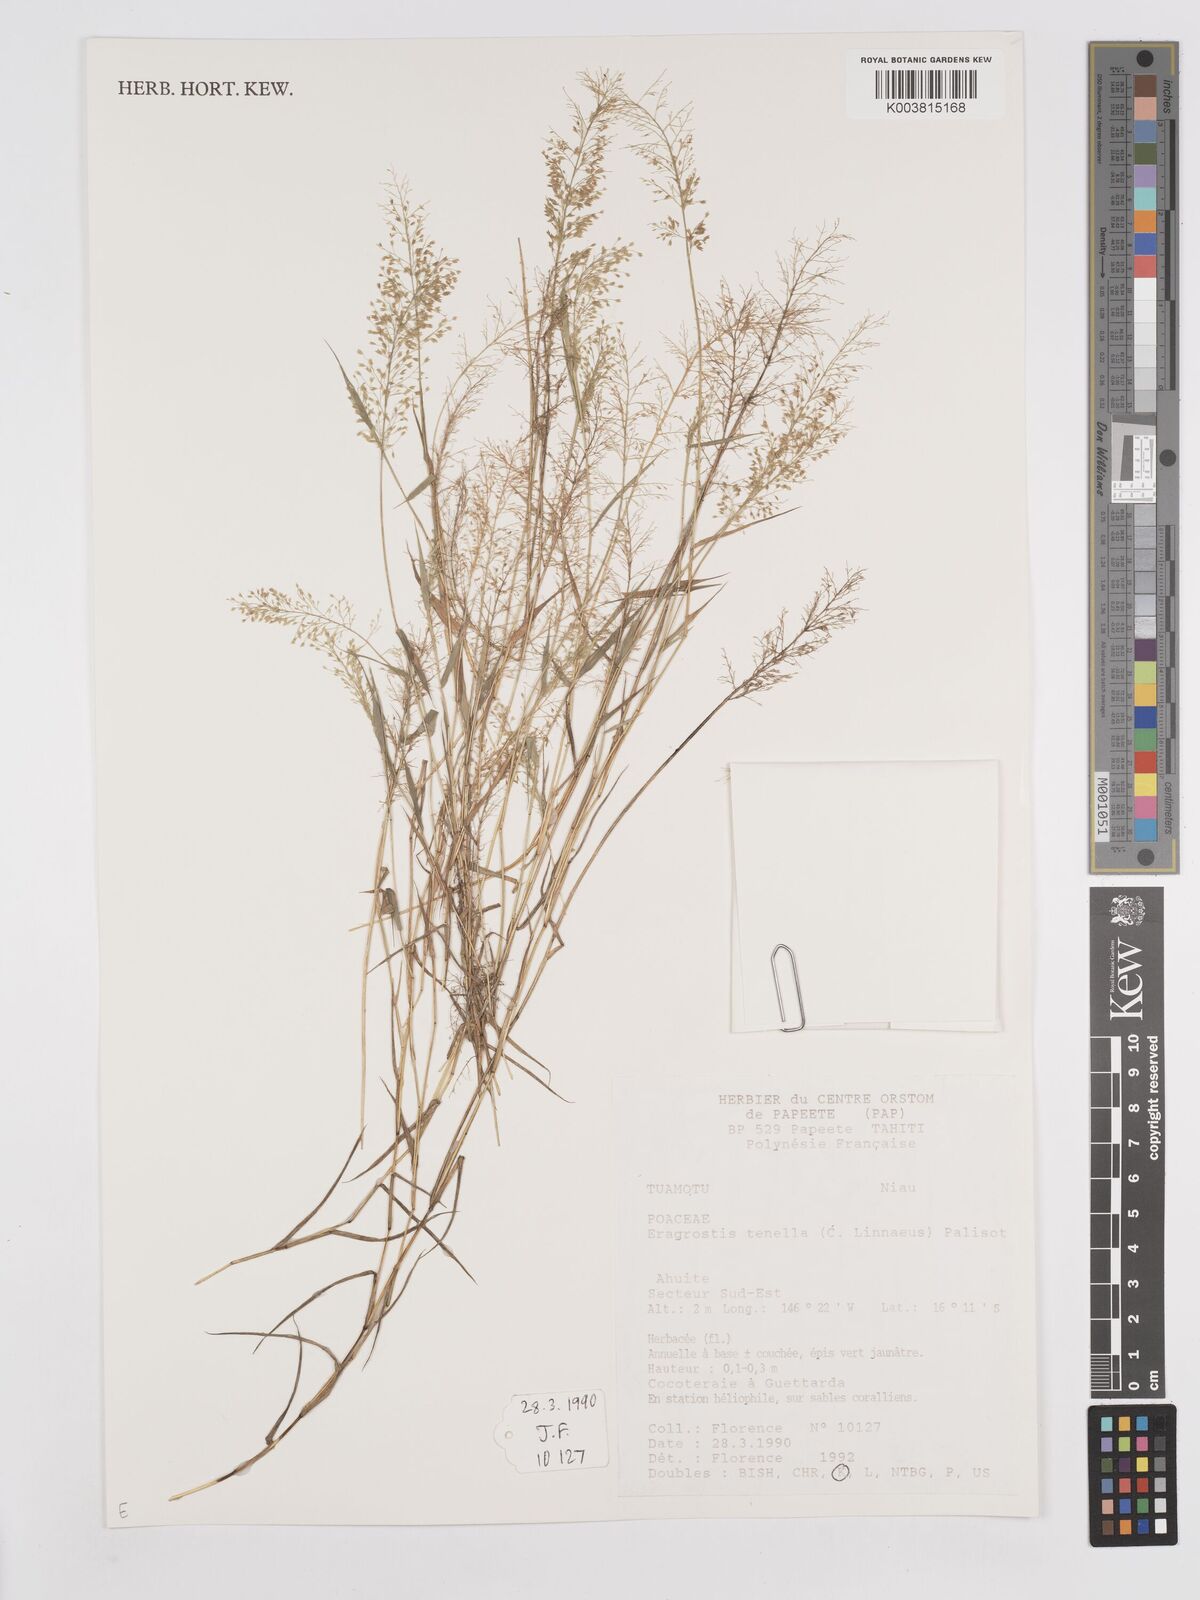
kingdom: Plantae
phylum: Tracheophyta
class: Liliopsida
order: Poales
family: Poaceae
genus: Eragrostis
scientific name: Eragrostis tenella
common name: Japanese lovegrass
